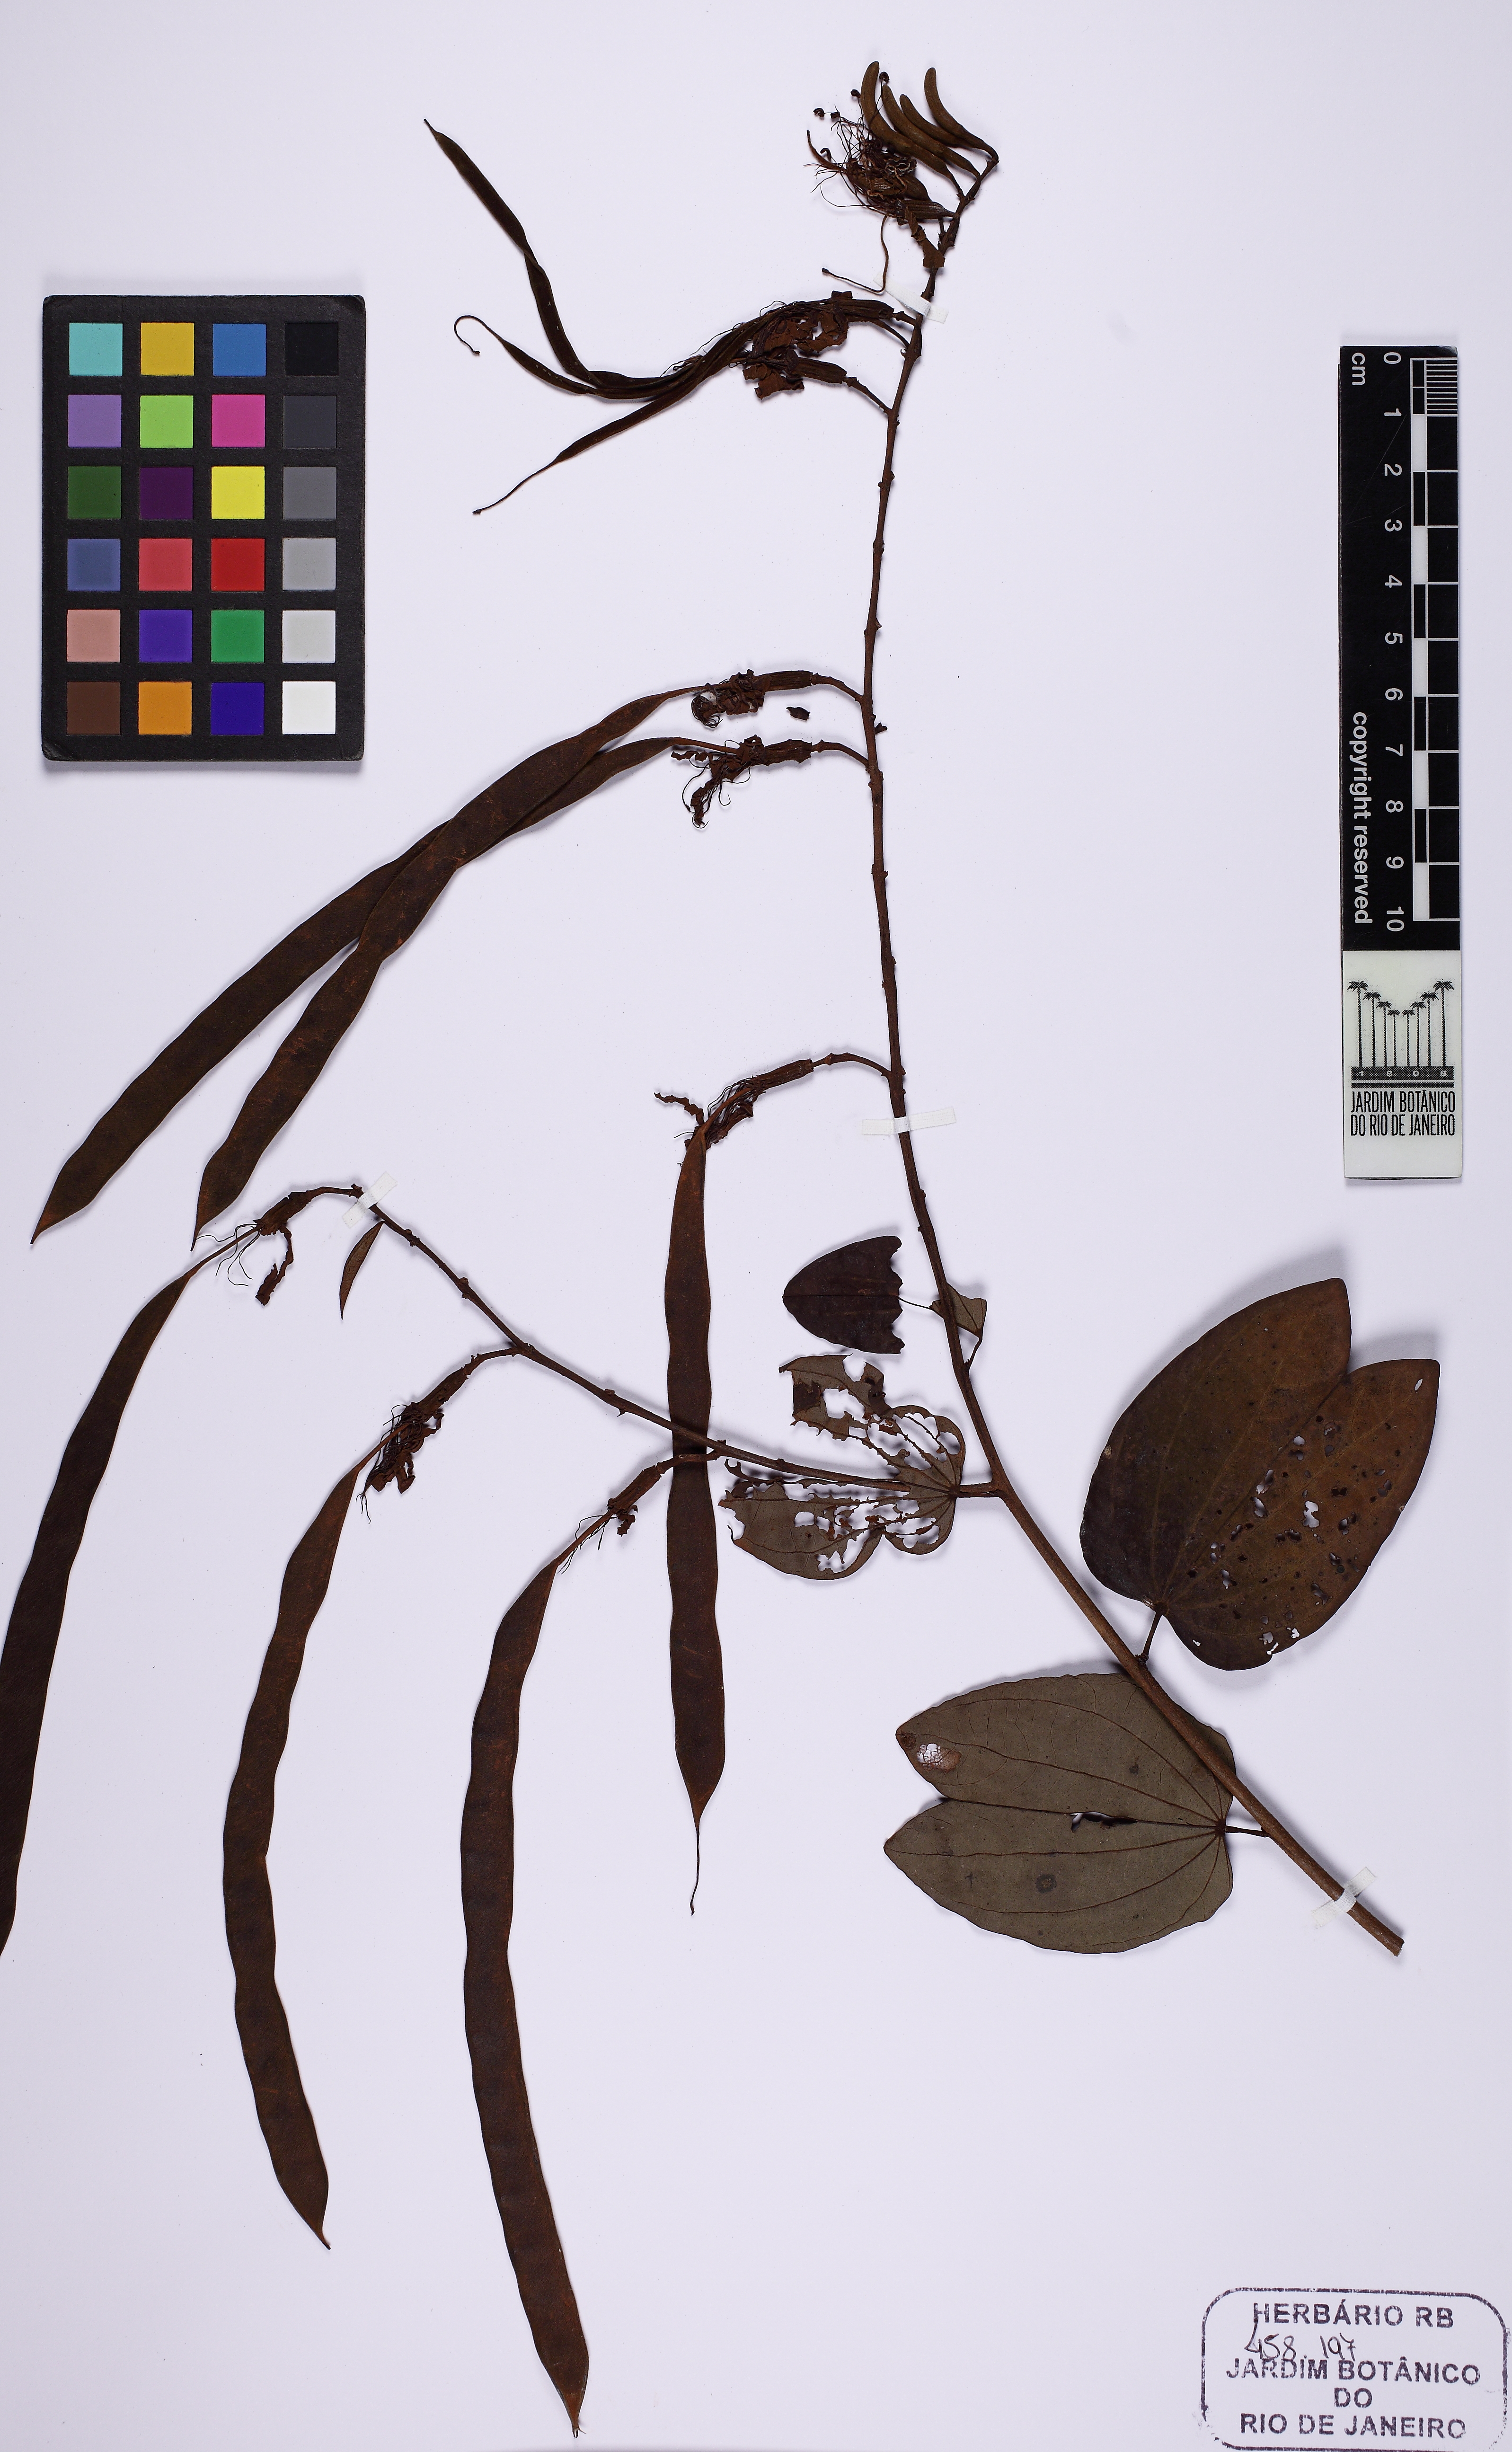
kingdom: Plantae
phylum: Tracheophyta
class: Magnoliopsida
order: Fabales
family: Fabaceae
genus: Bauhinia
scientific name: Bauhinia ungulata
